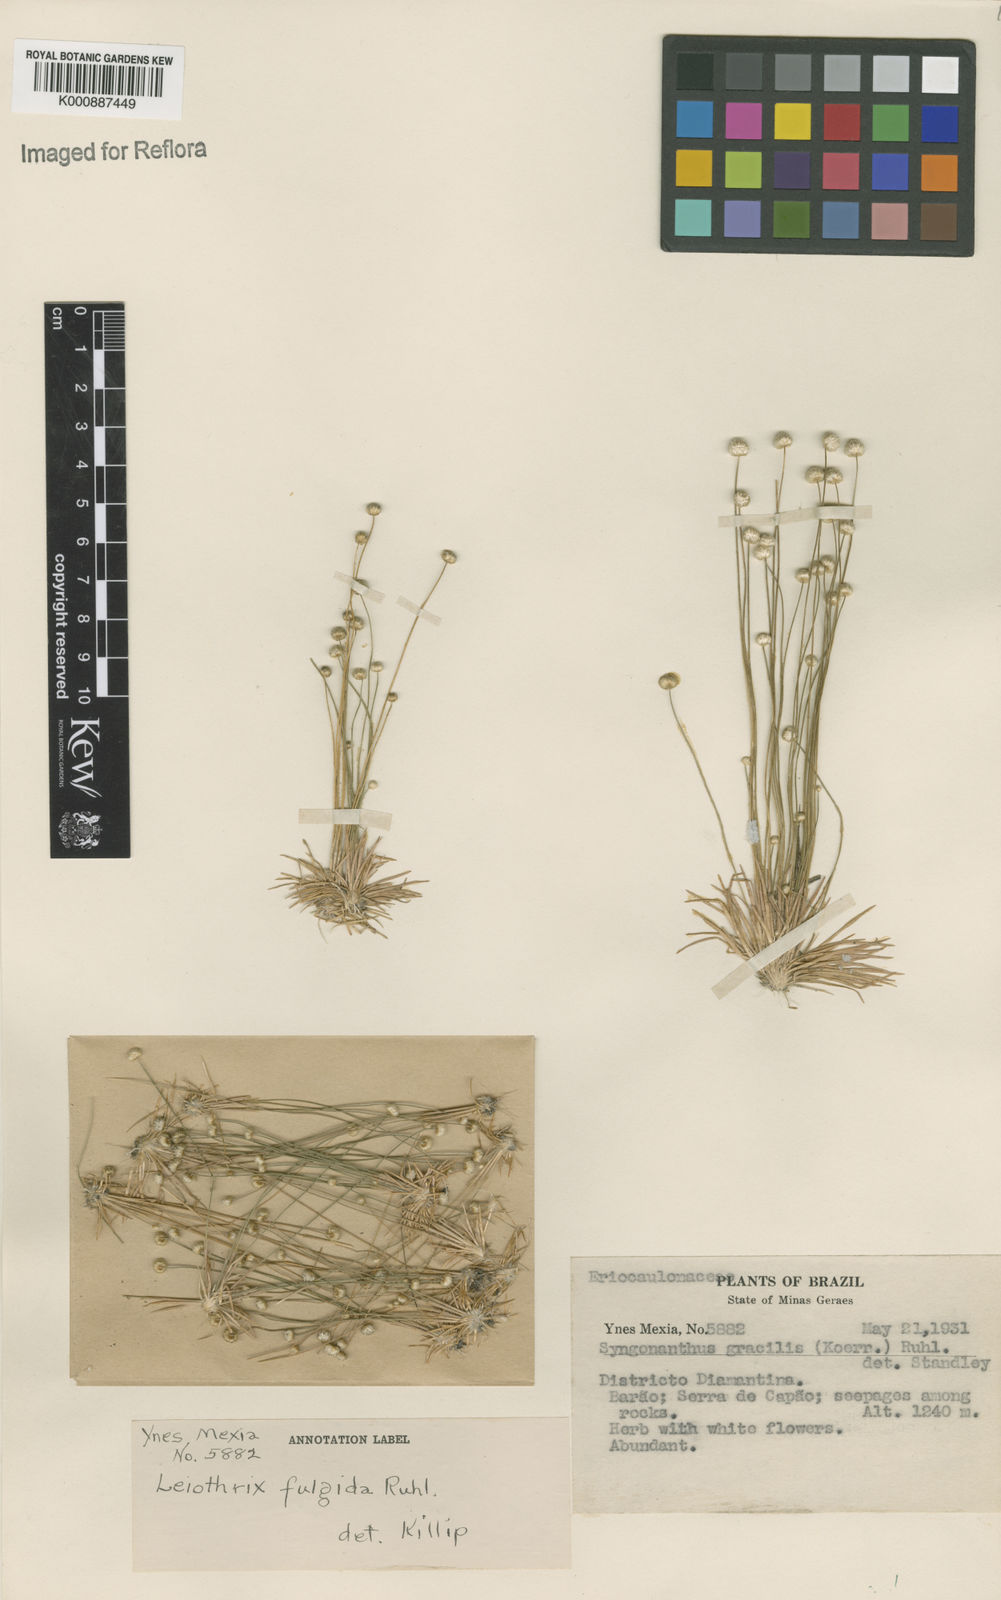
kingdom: Plantae
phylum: Tracheophyta
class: Liliopsida
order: Poales
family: Eriocaulaceae
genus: Leiothrix
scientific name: Leiothrix fulgida
